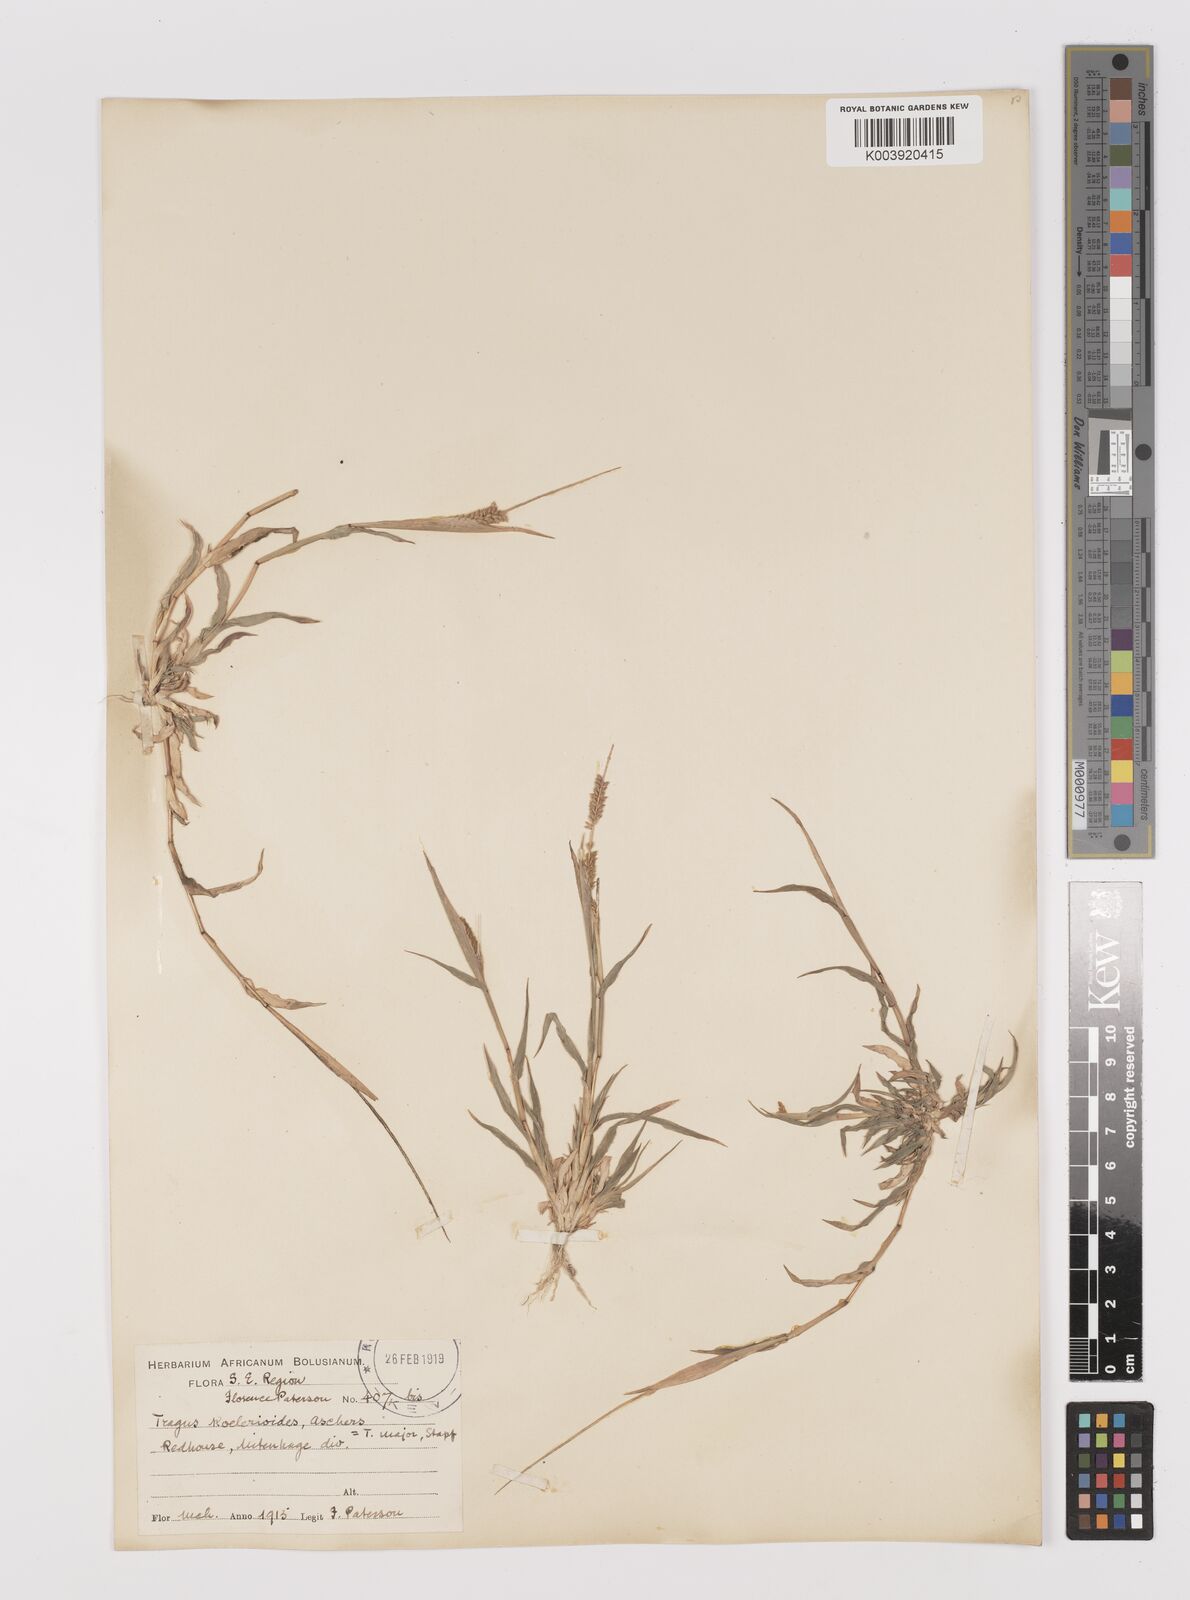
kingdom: Plantae
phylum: Tracheophyta
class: Liliopsida
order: Poales
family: Poaceae
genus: Tragus
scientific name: Tragus berteronianus
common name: African bur-grass
